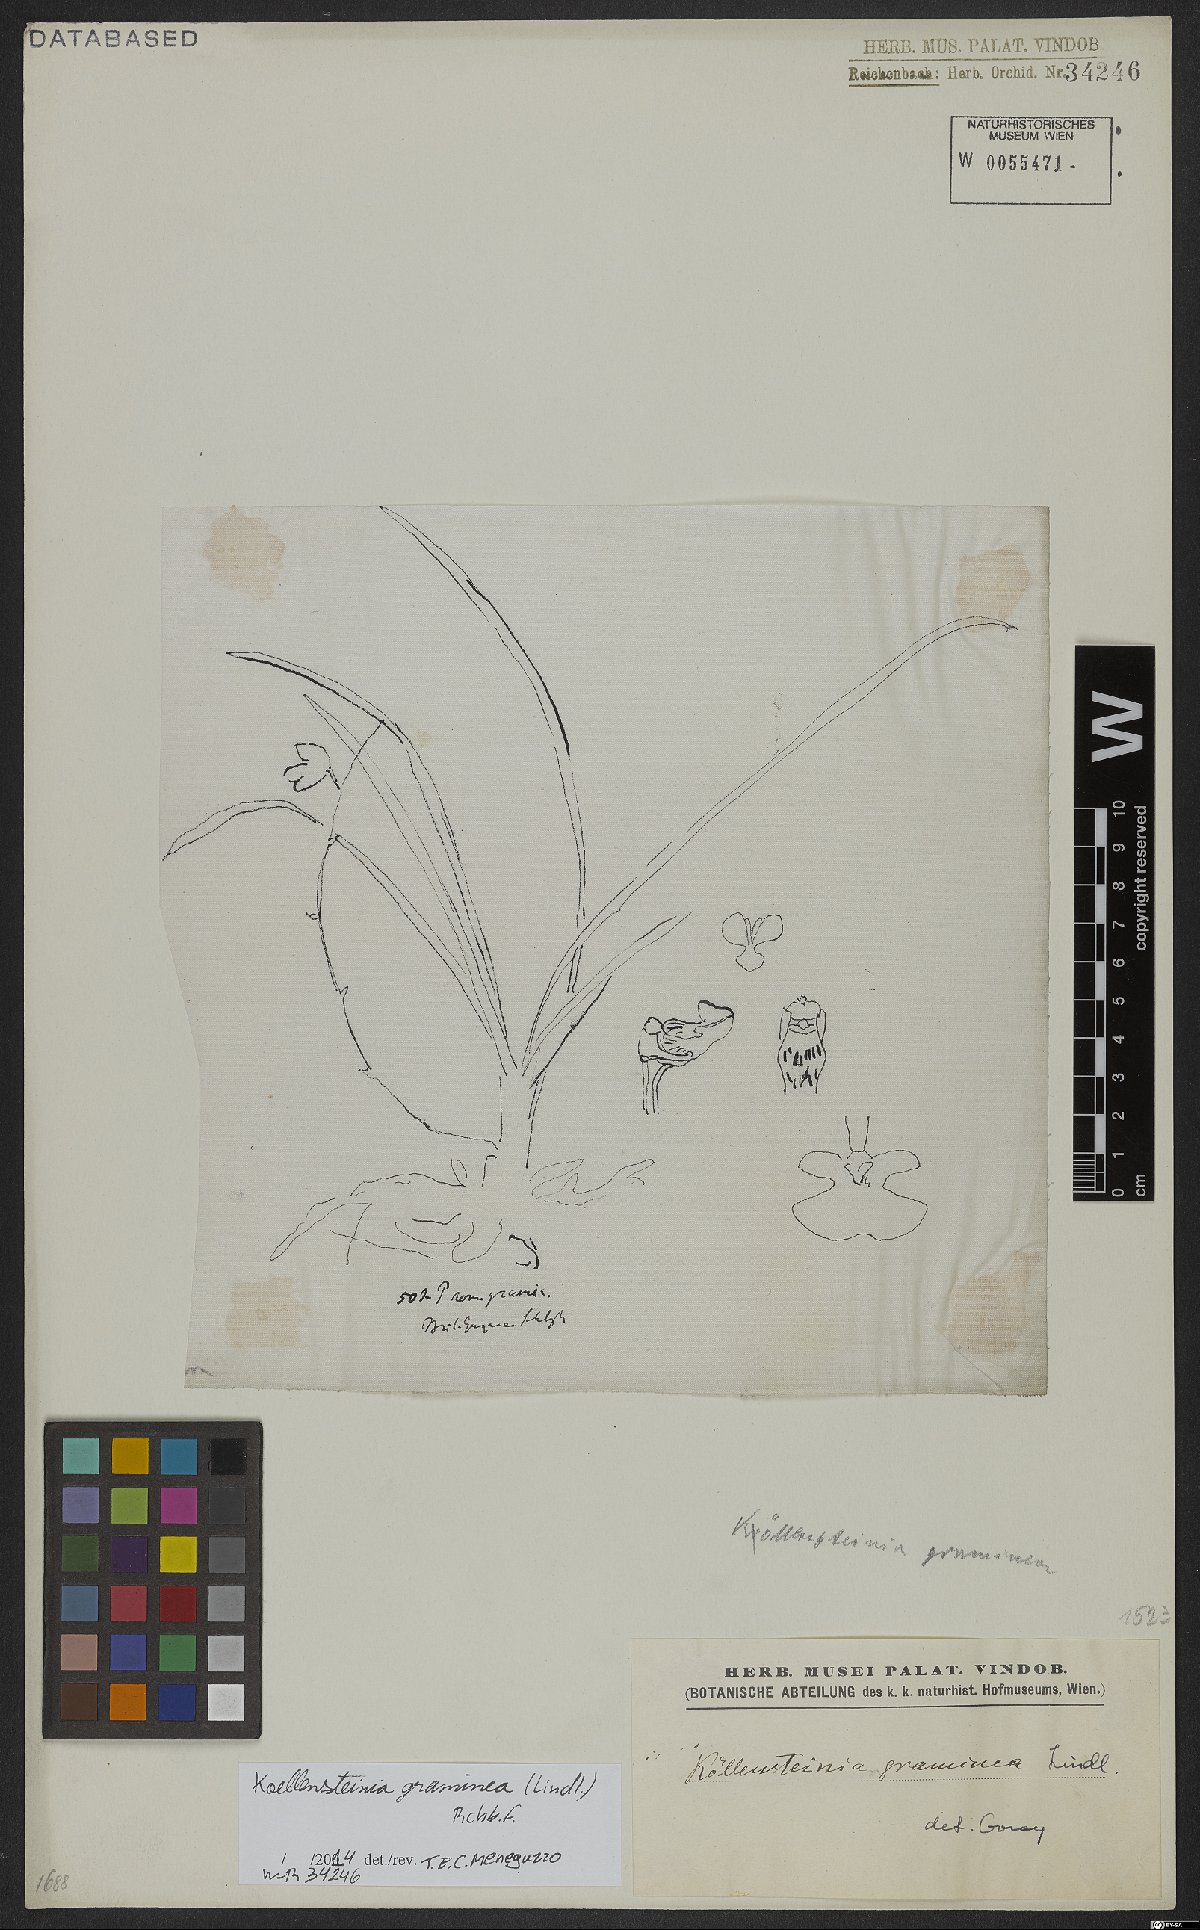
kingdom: Plantae
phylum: Tracheophyta
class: Liliopsida
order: Asparagales
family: Orchidaceae
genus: Koellensteinia
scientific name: Koellensteinia graminea
